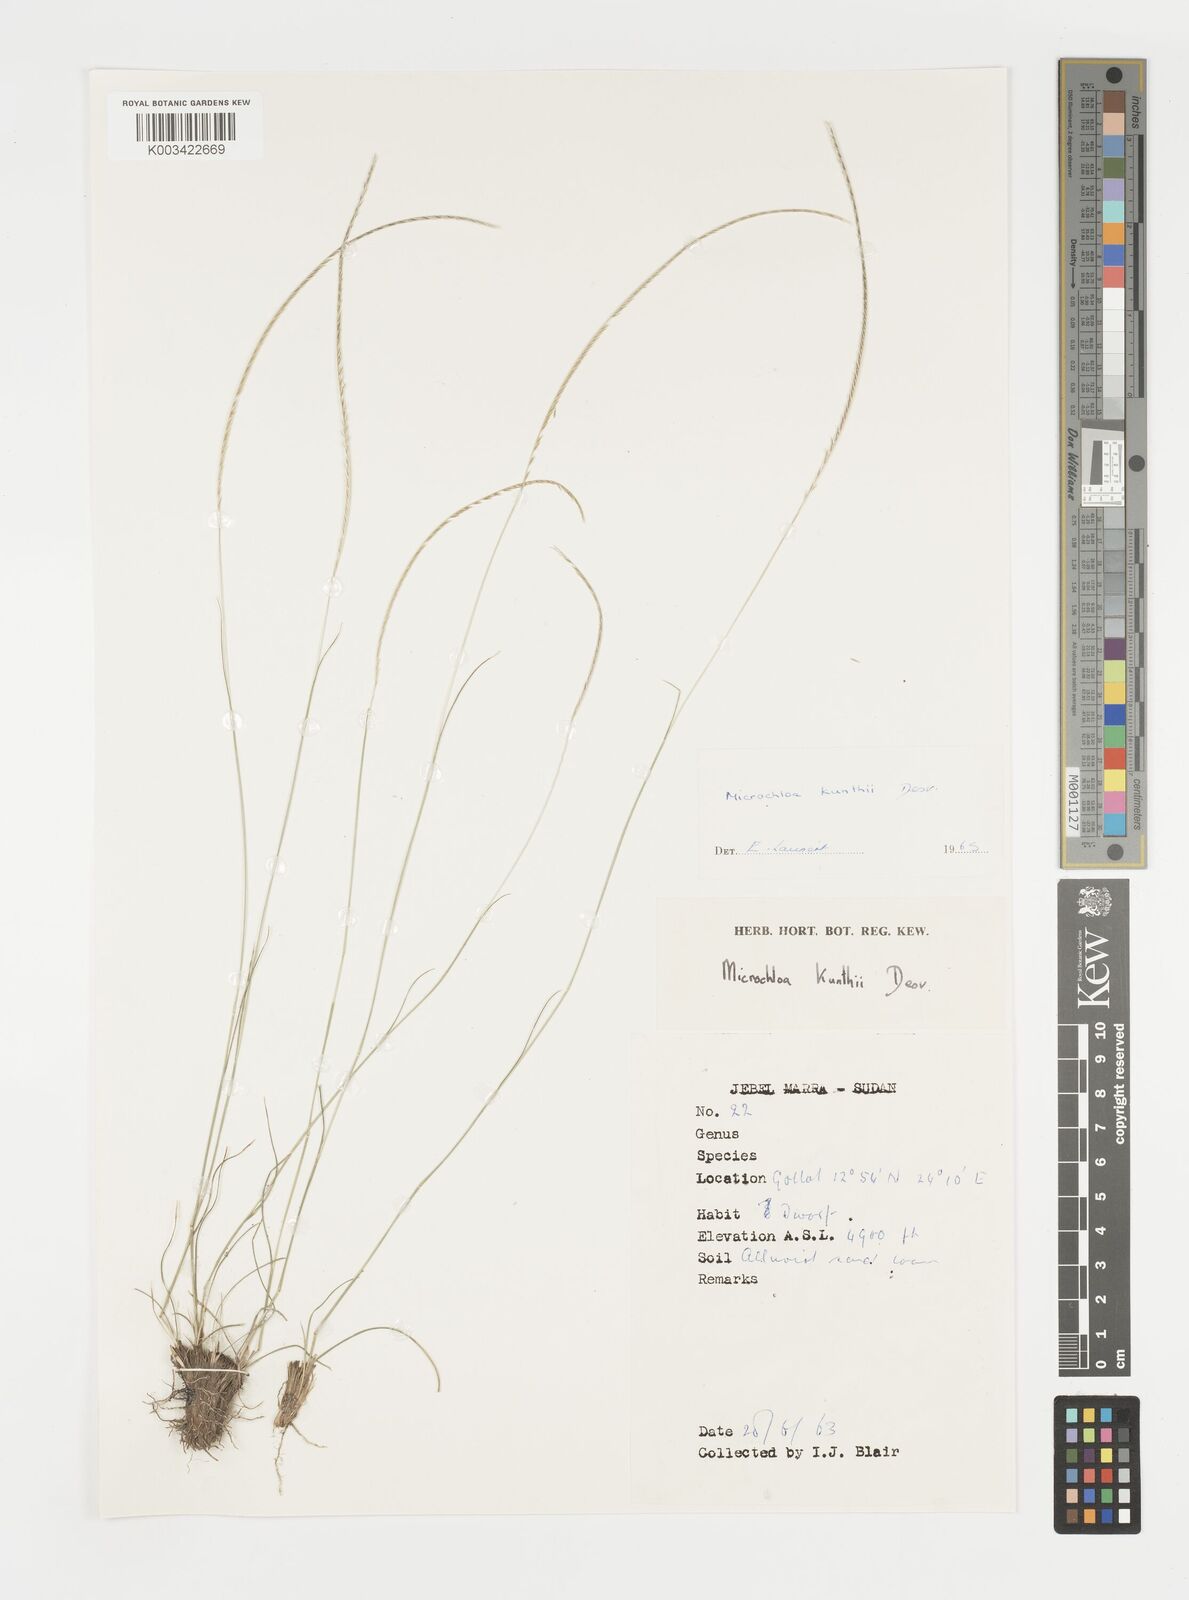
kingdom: Plantae
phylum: Tracheophyta
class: Liliopsida
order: Poales
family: Poaceae
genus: Microchloa
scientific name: Microchloa kunthii
